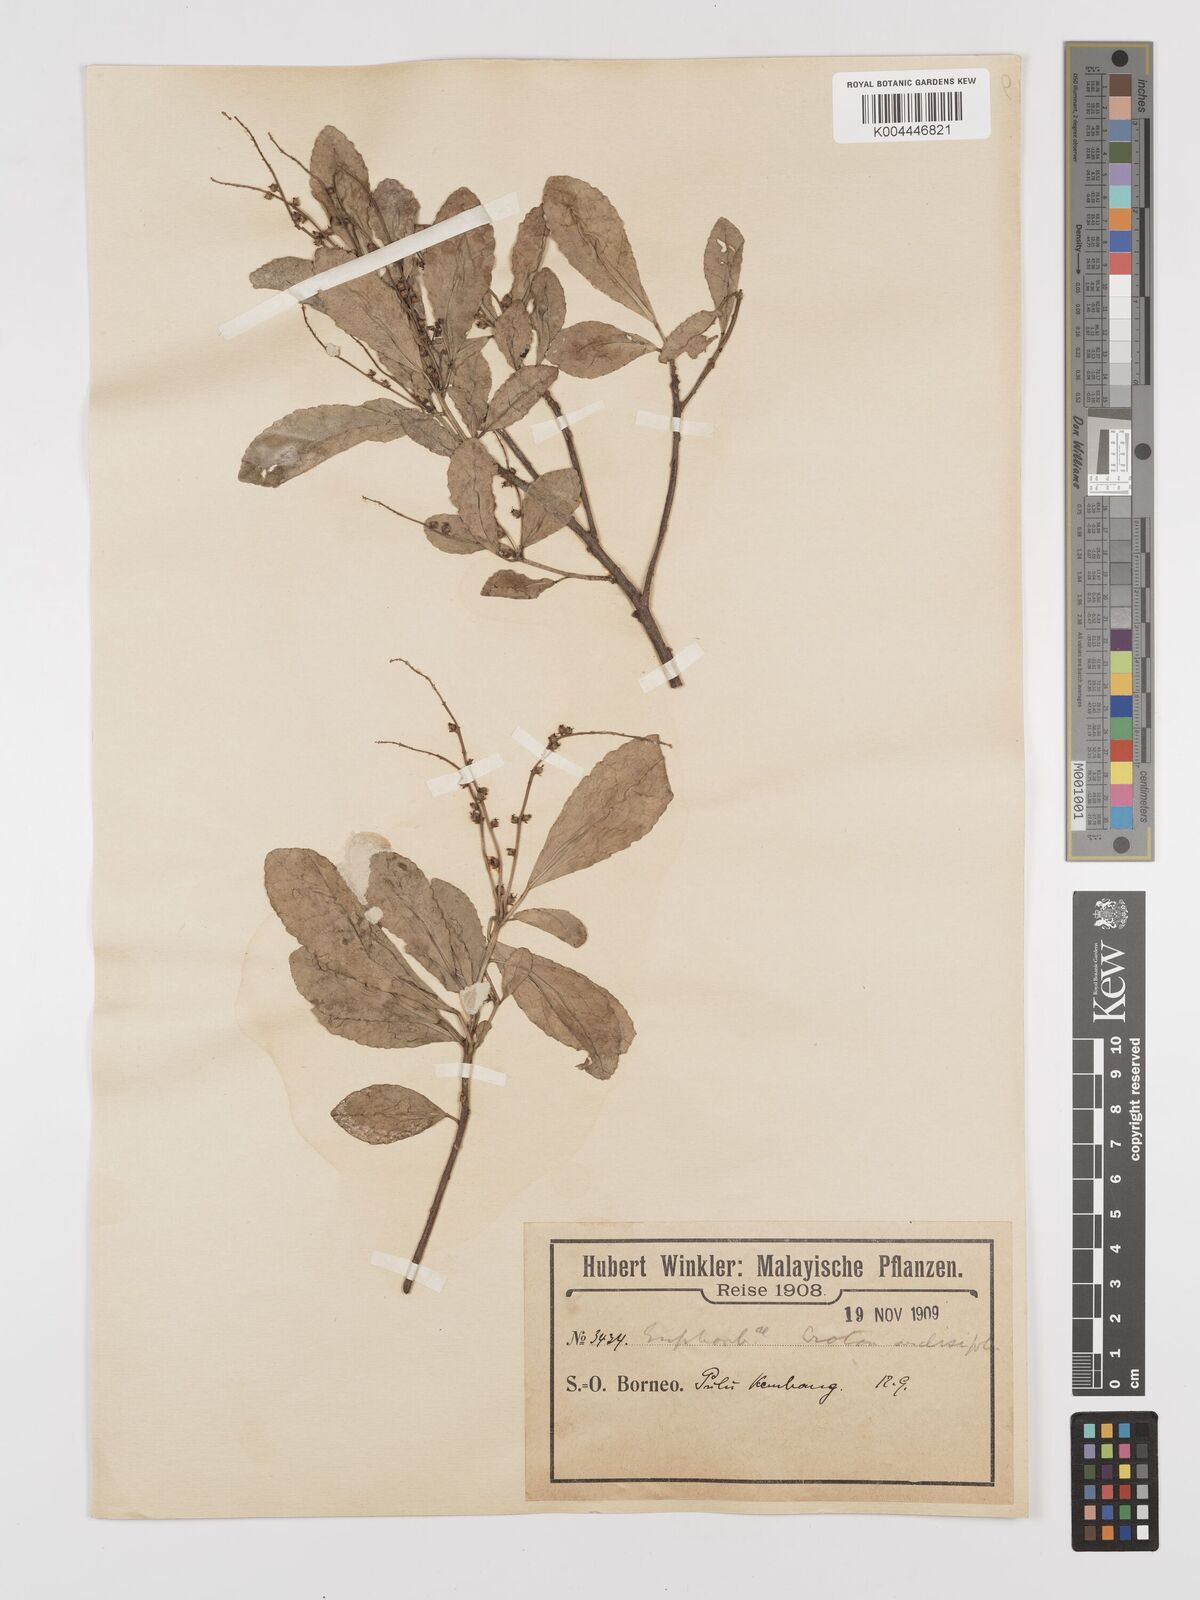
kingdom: Plantae
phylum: Tracheophyta
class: Magnoliopsida
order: Malpighiales
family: Euphorbiaceae
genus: Croton
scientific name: Croton heterocarpus
